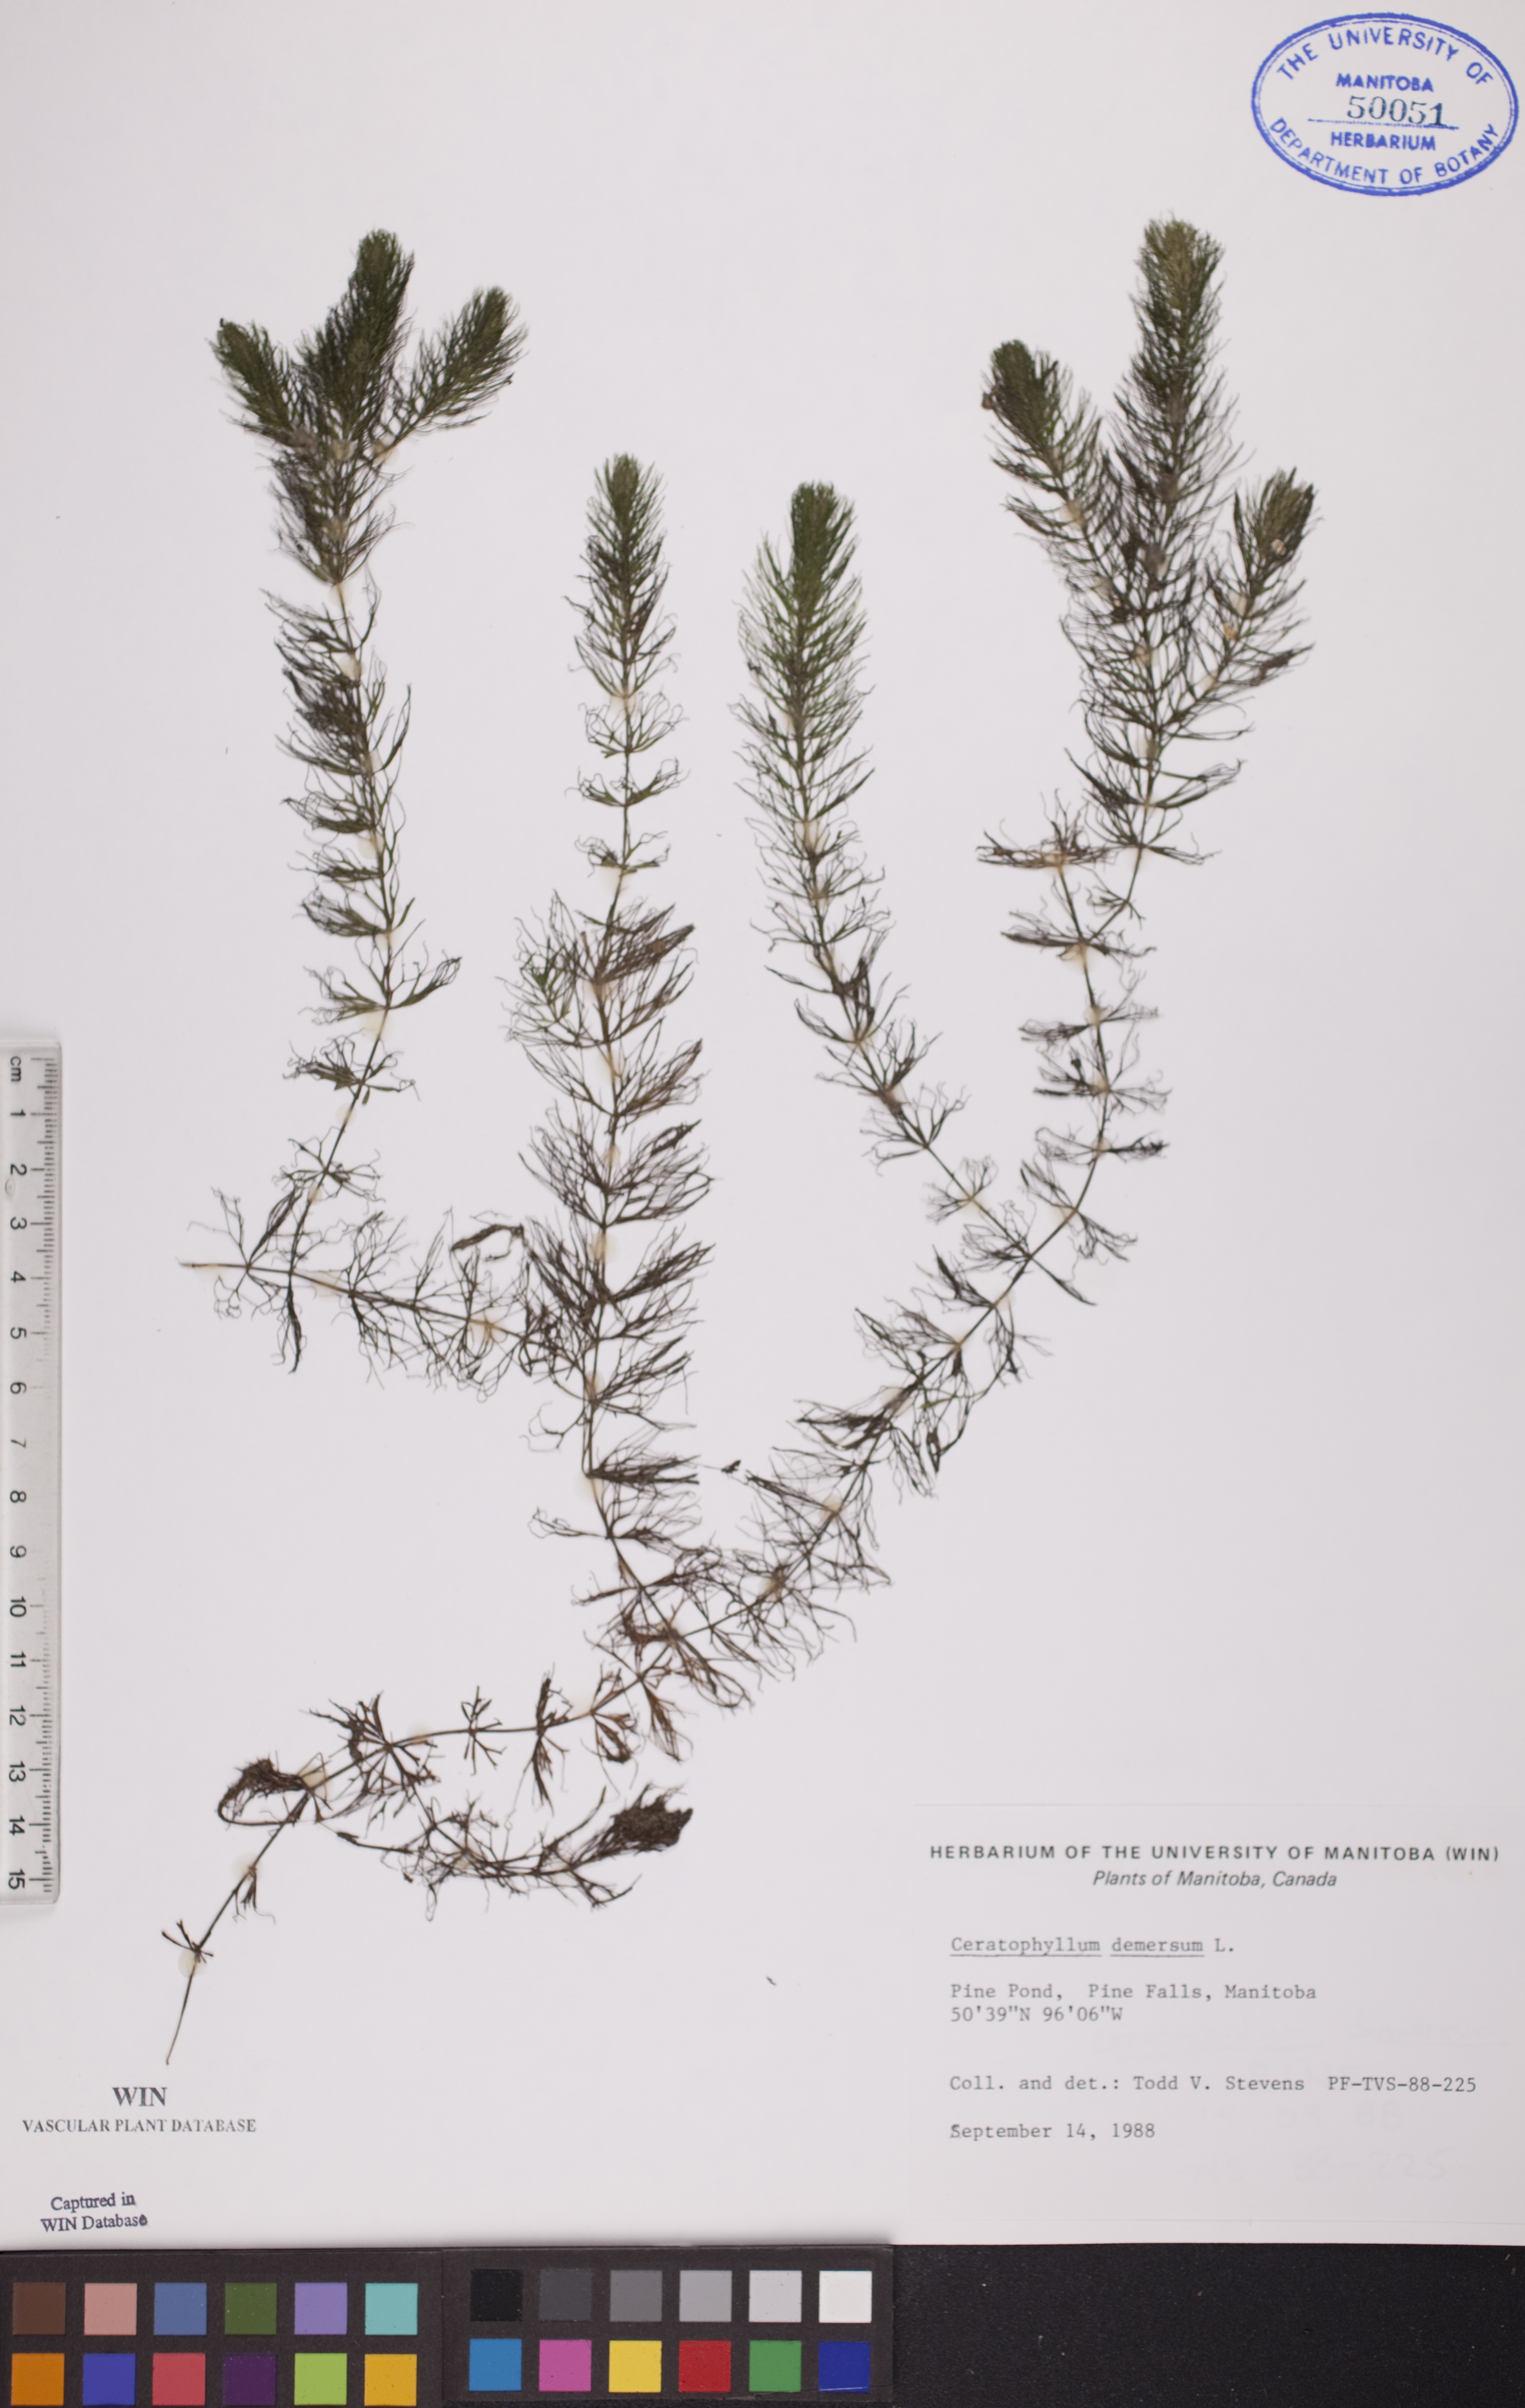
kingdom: Plantae
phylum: Tracheophyta
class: Magnoliopsida
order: Ceratophyllales
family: Ceratophyllaceae
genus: Ceratophyllum
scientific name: Ceratophyllum demersum
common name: Rigid hornwort
